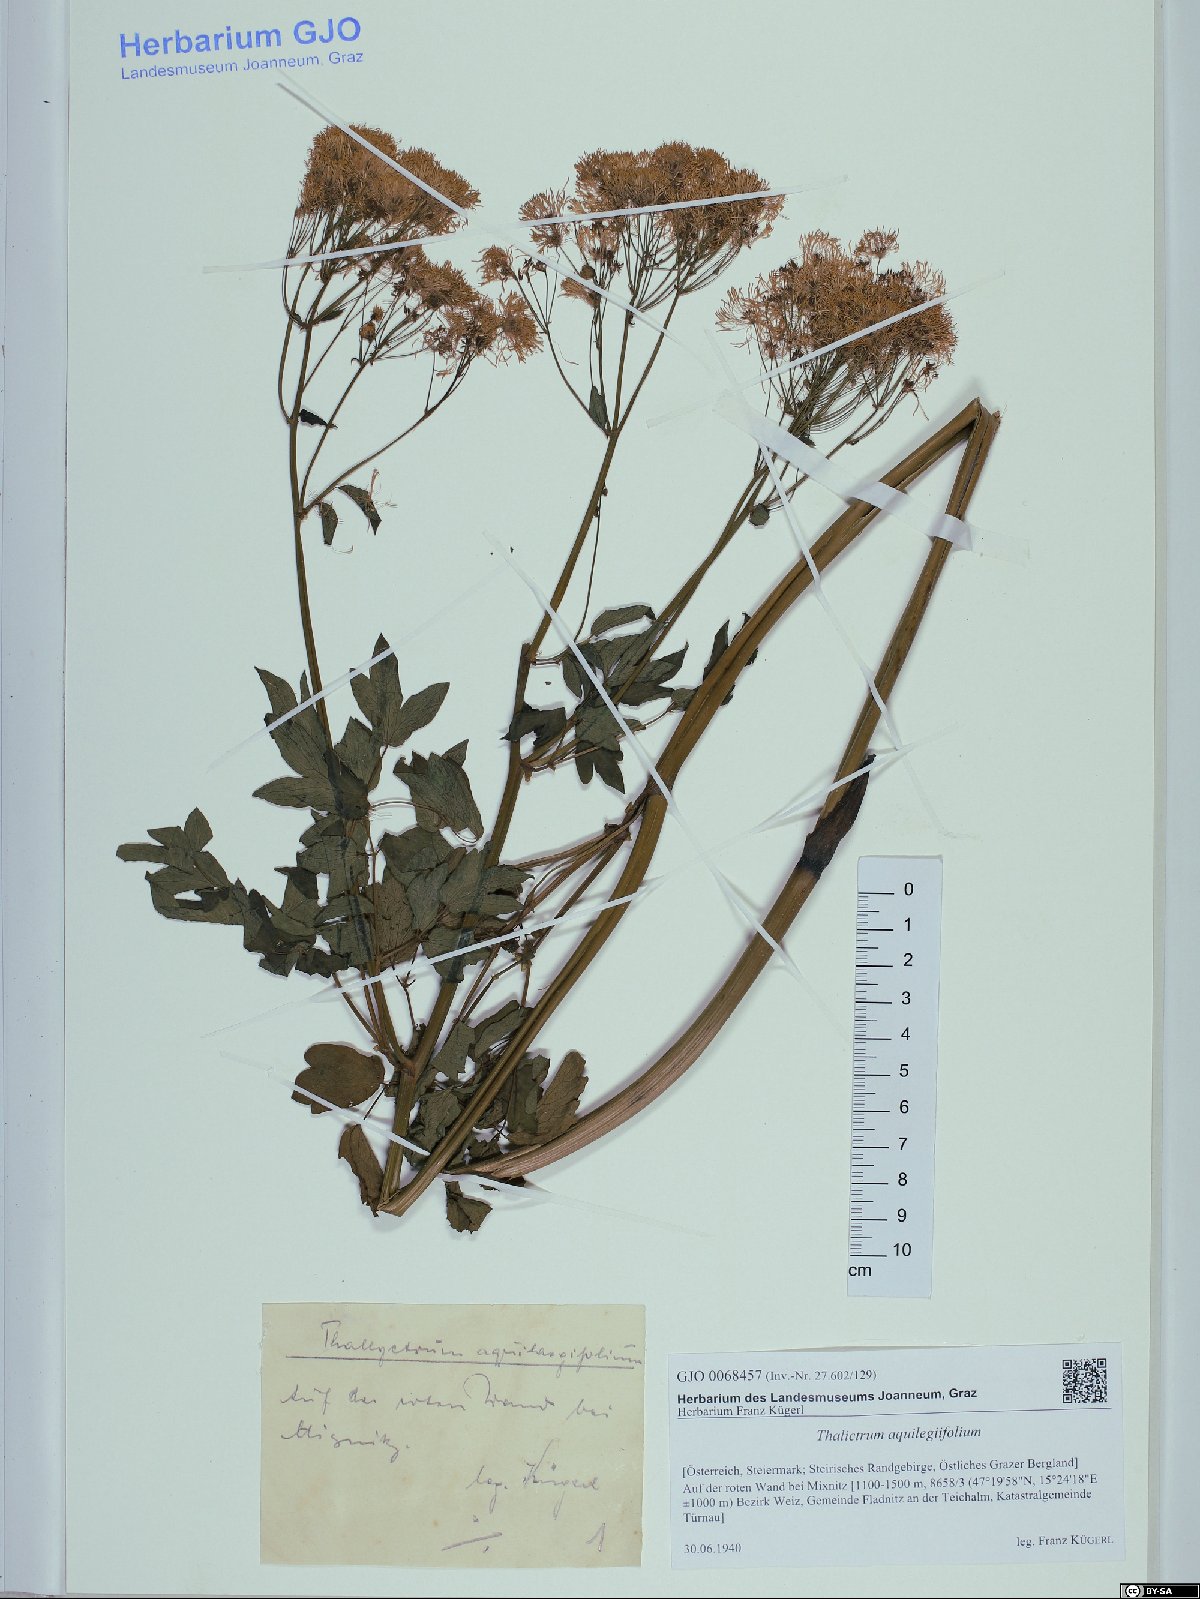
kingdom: Plantae
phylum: Tracheophyta
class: Magnoliopsida
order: Ranunculales
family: Ranunculaceae
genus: Thalictrum
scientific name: Thalictrum aquilegiifolium
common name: French meadow-rue
